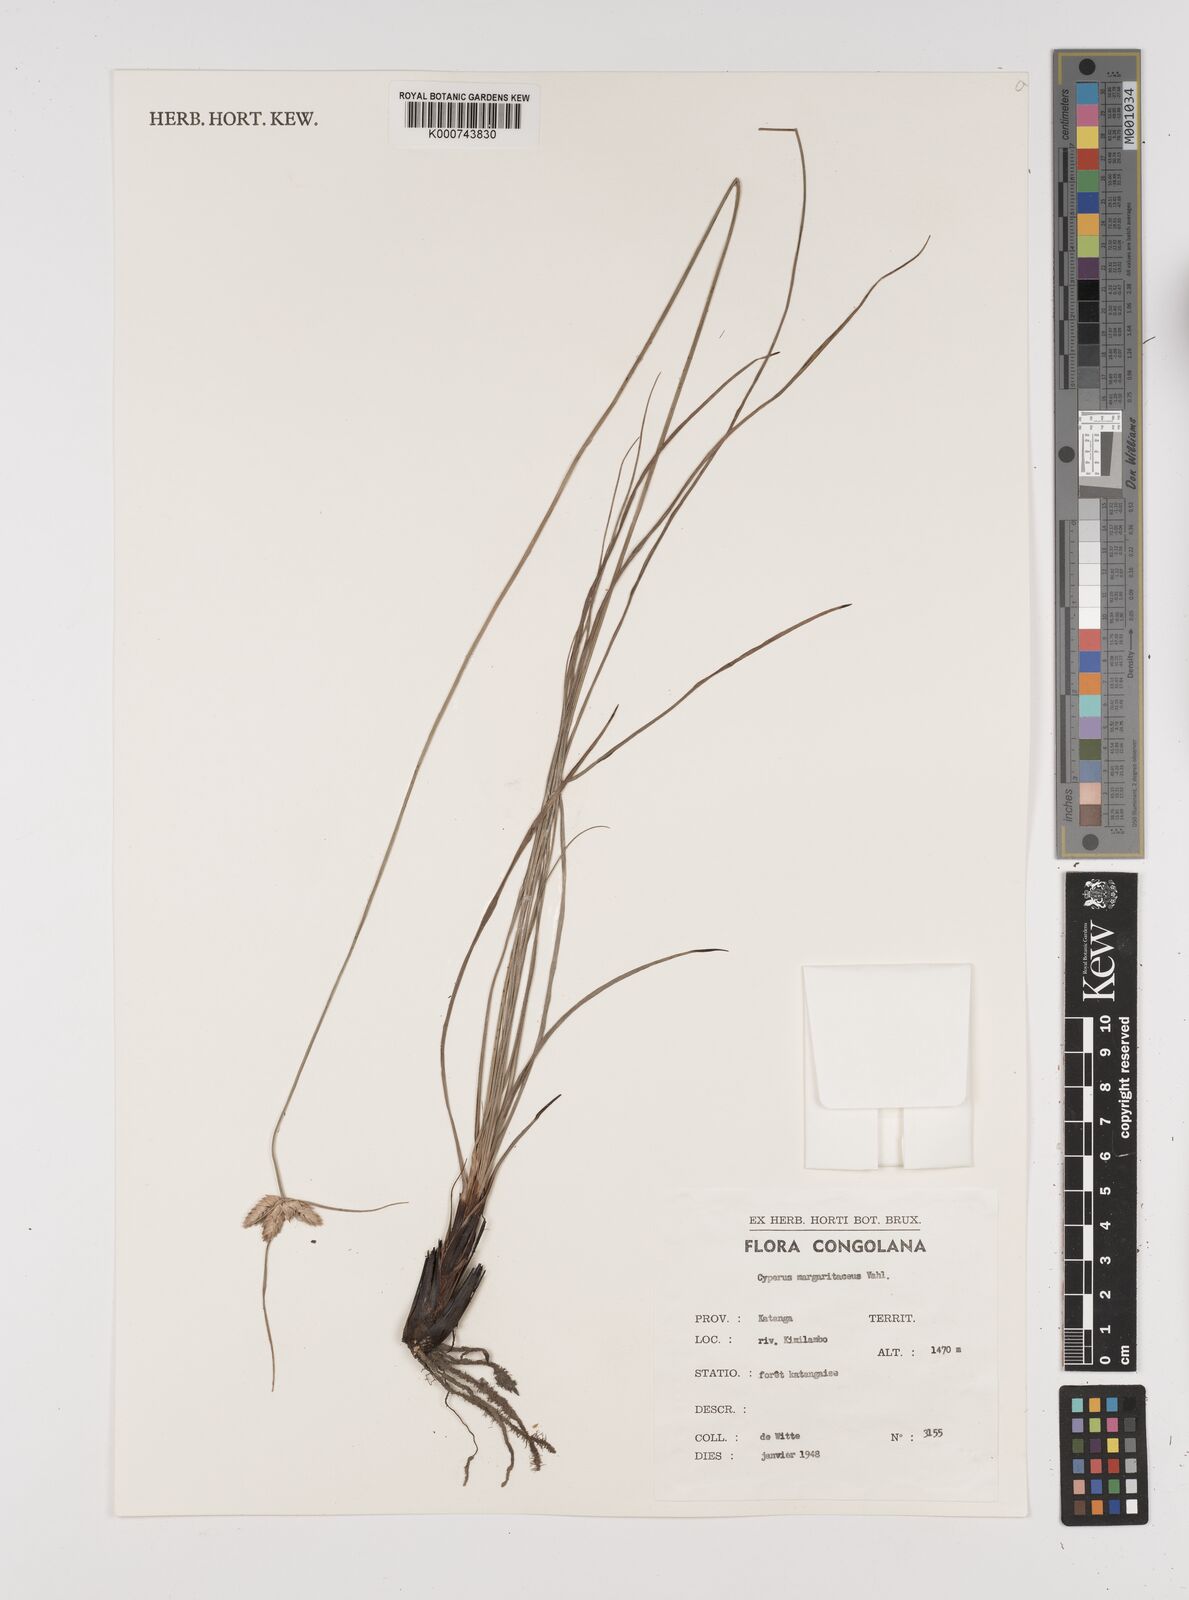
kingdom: Plantae
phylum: Tracheophyta
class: Liliopsida
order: Poales
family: Cyperaceae
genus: Cyperus
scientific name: Cyperus margaritaceus
